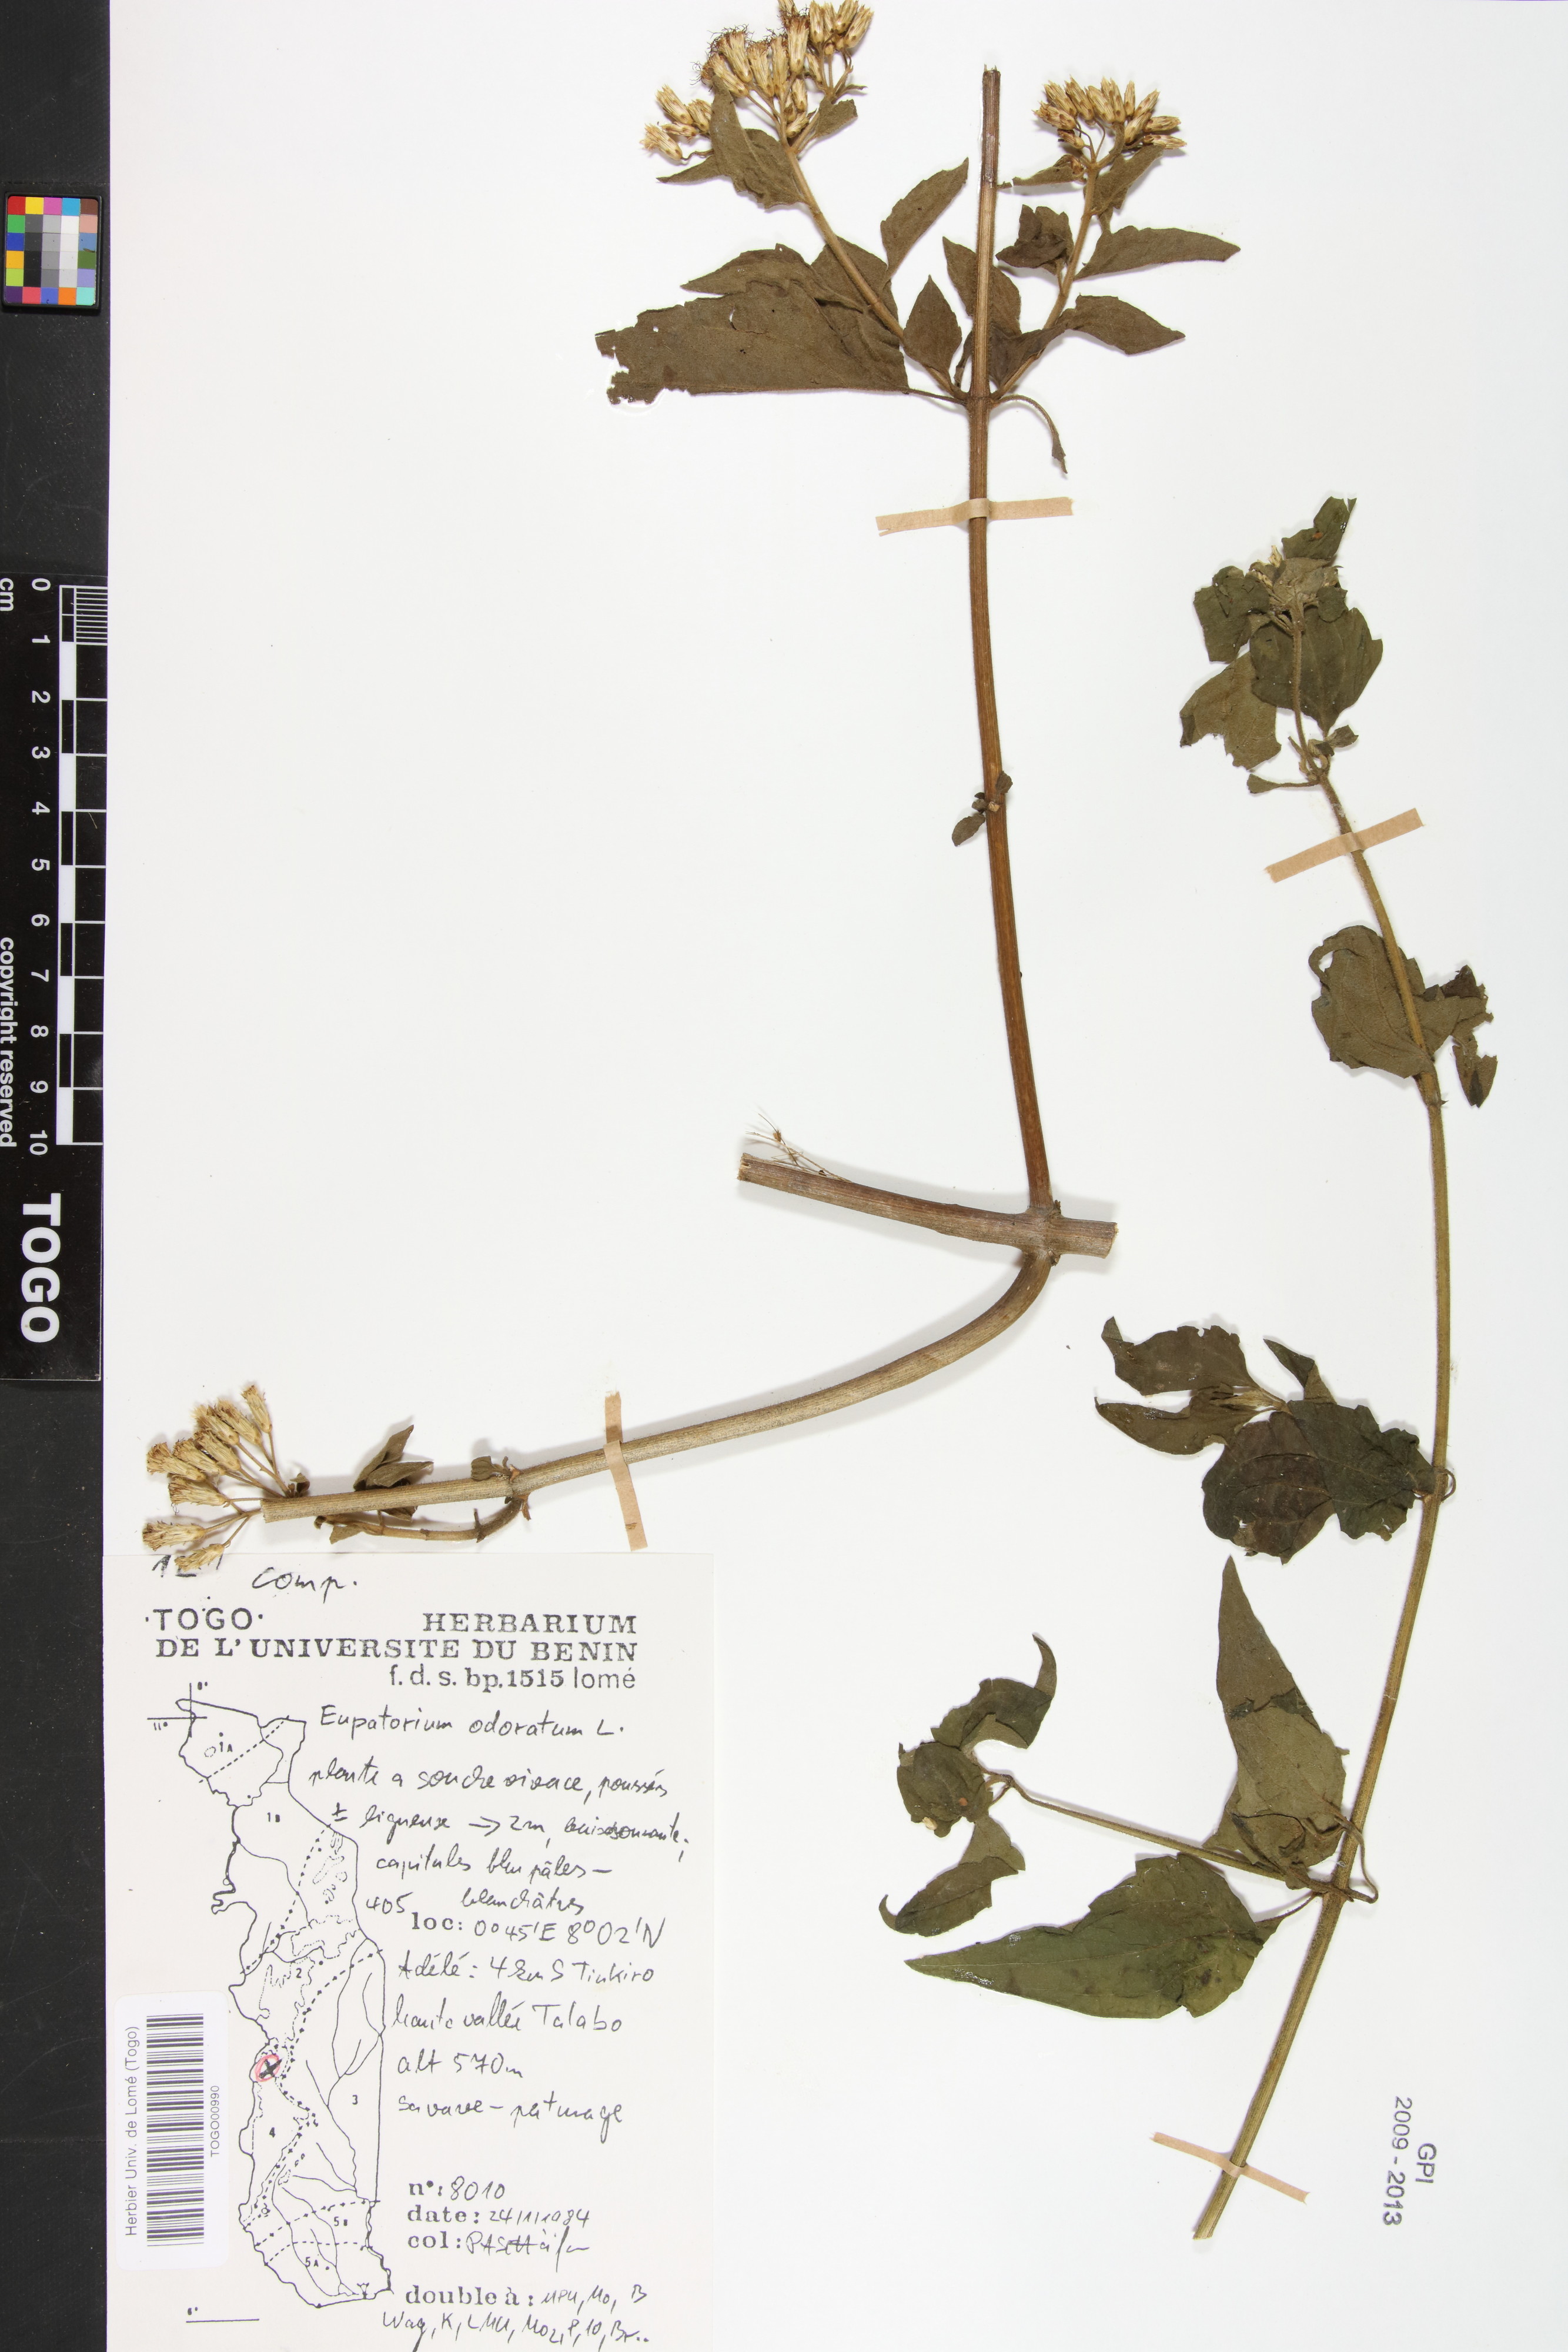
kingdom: Plantae
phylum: Tracheophyta
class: Magnoliopsida
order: Asterales
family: Asteraceae
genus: Chromolaena
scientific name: Chromolaena odorata
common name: Siamweed
